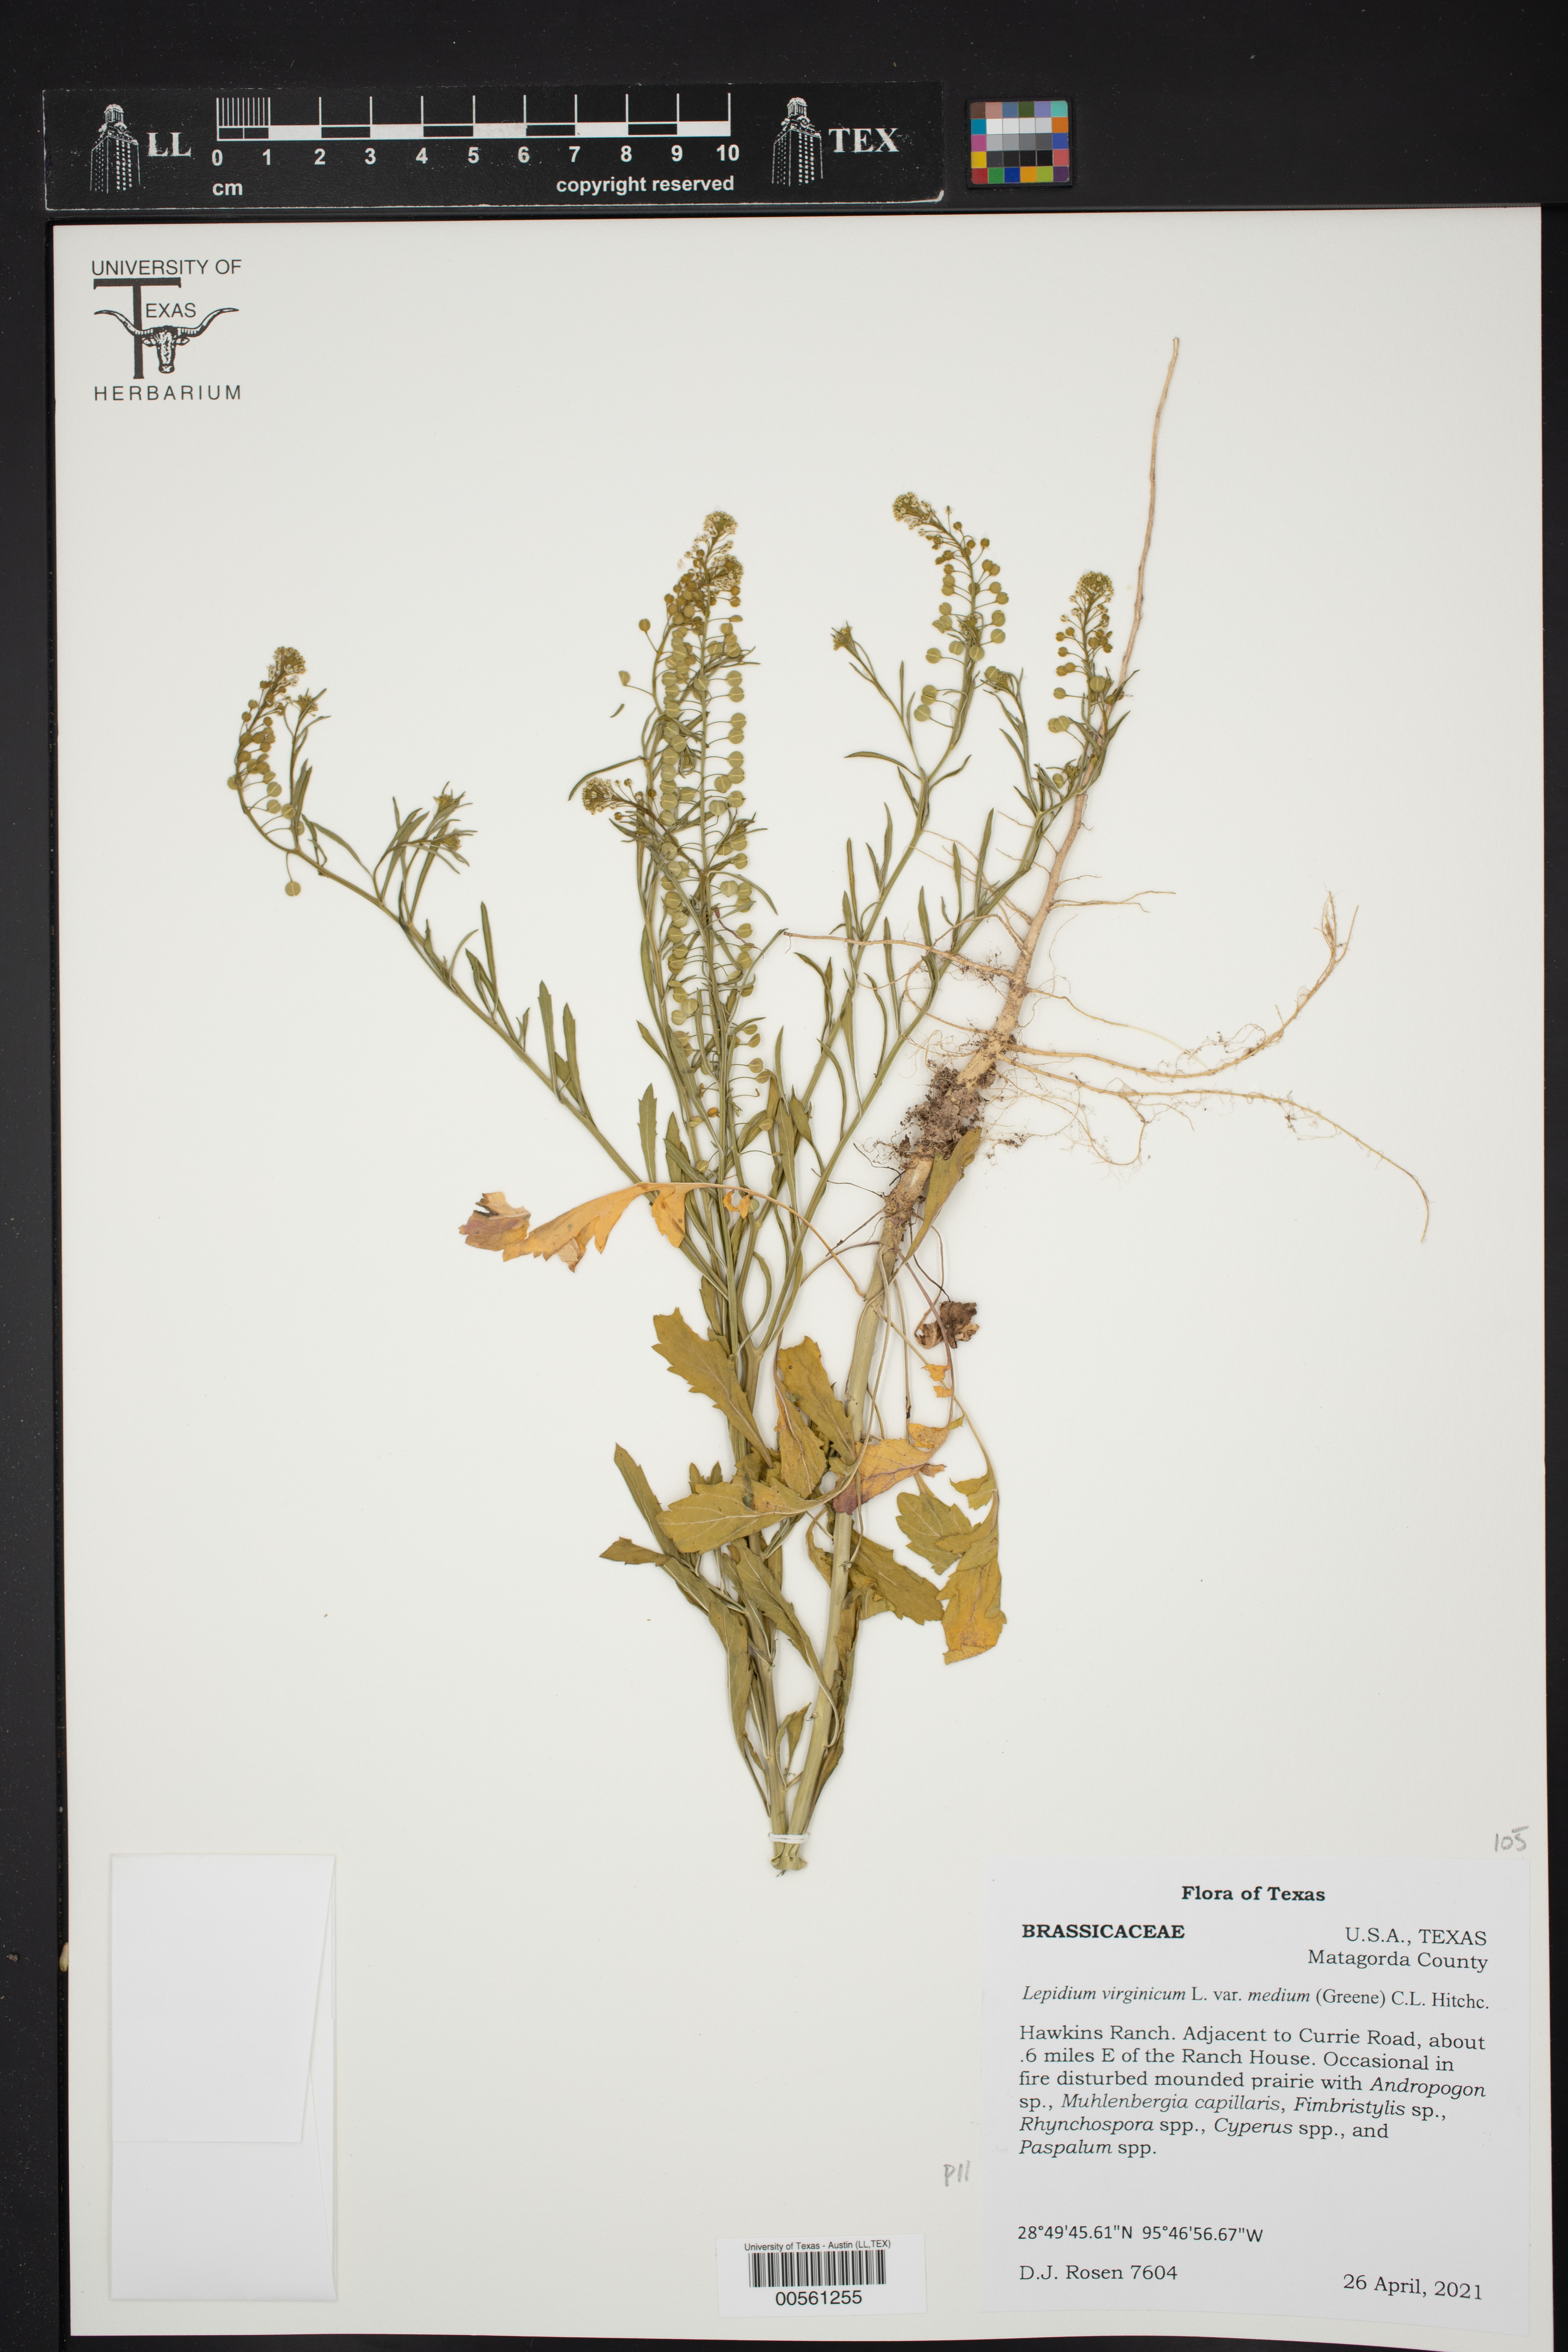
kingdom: Plantae
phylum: Tracheophyta
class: Magnoliopsida
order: Brassicales
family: Brassicaceae
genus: Lepidium
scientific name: Lepidium virginicum
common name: Least pepperwort
